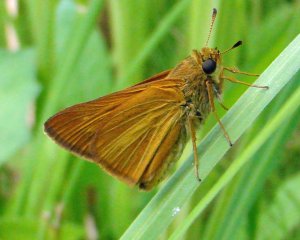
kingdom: Animalia
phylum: Arthropoda
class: Insecta
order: Lepidoptera
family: Hesperiidae
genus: Euphyes
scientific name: Euphyes dion
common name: Dion Skipper
